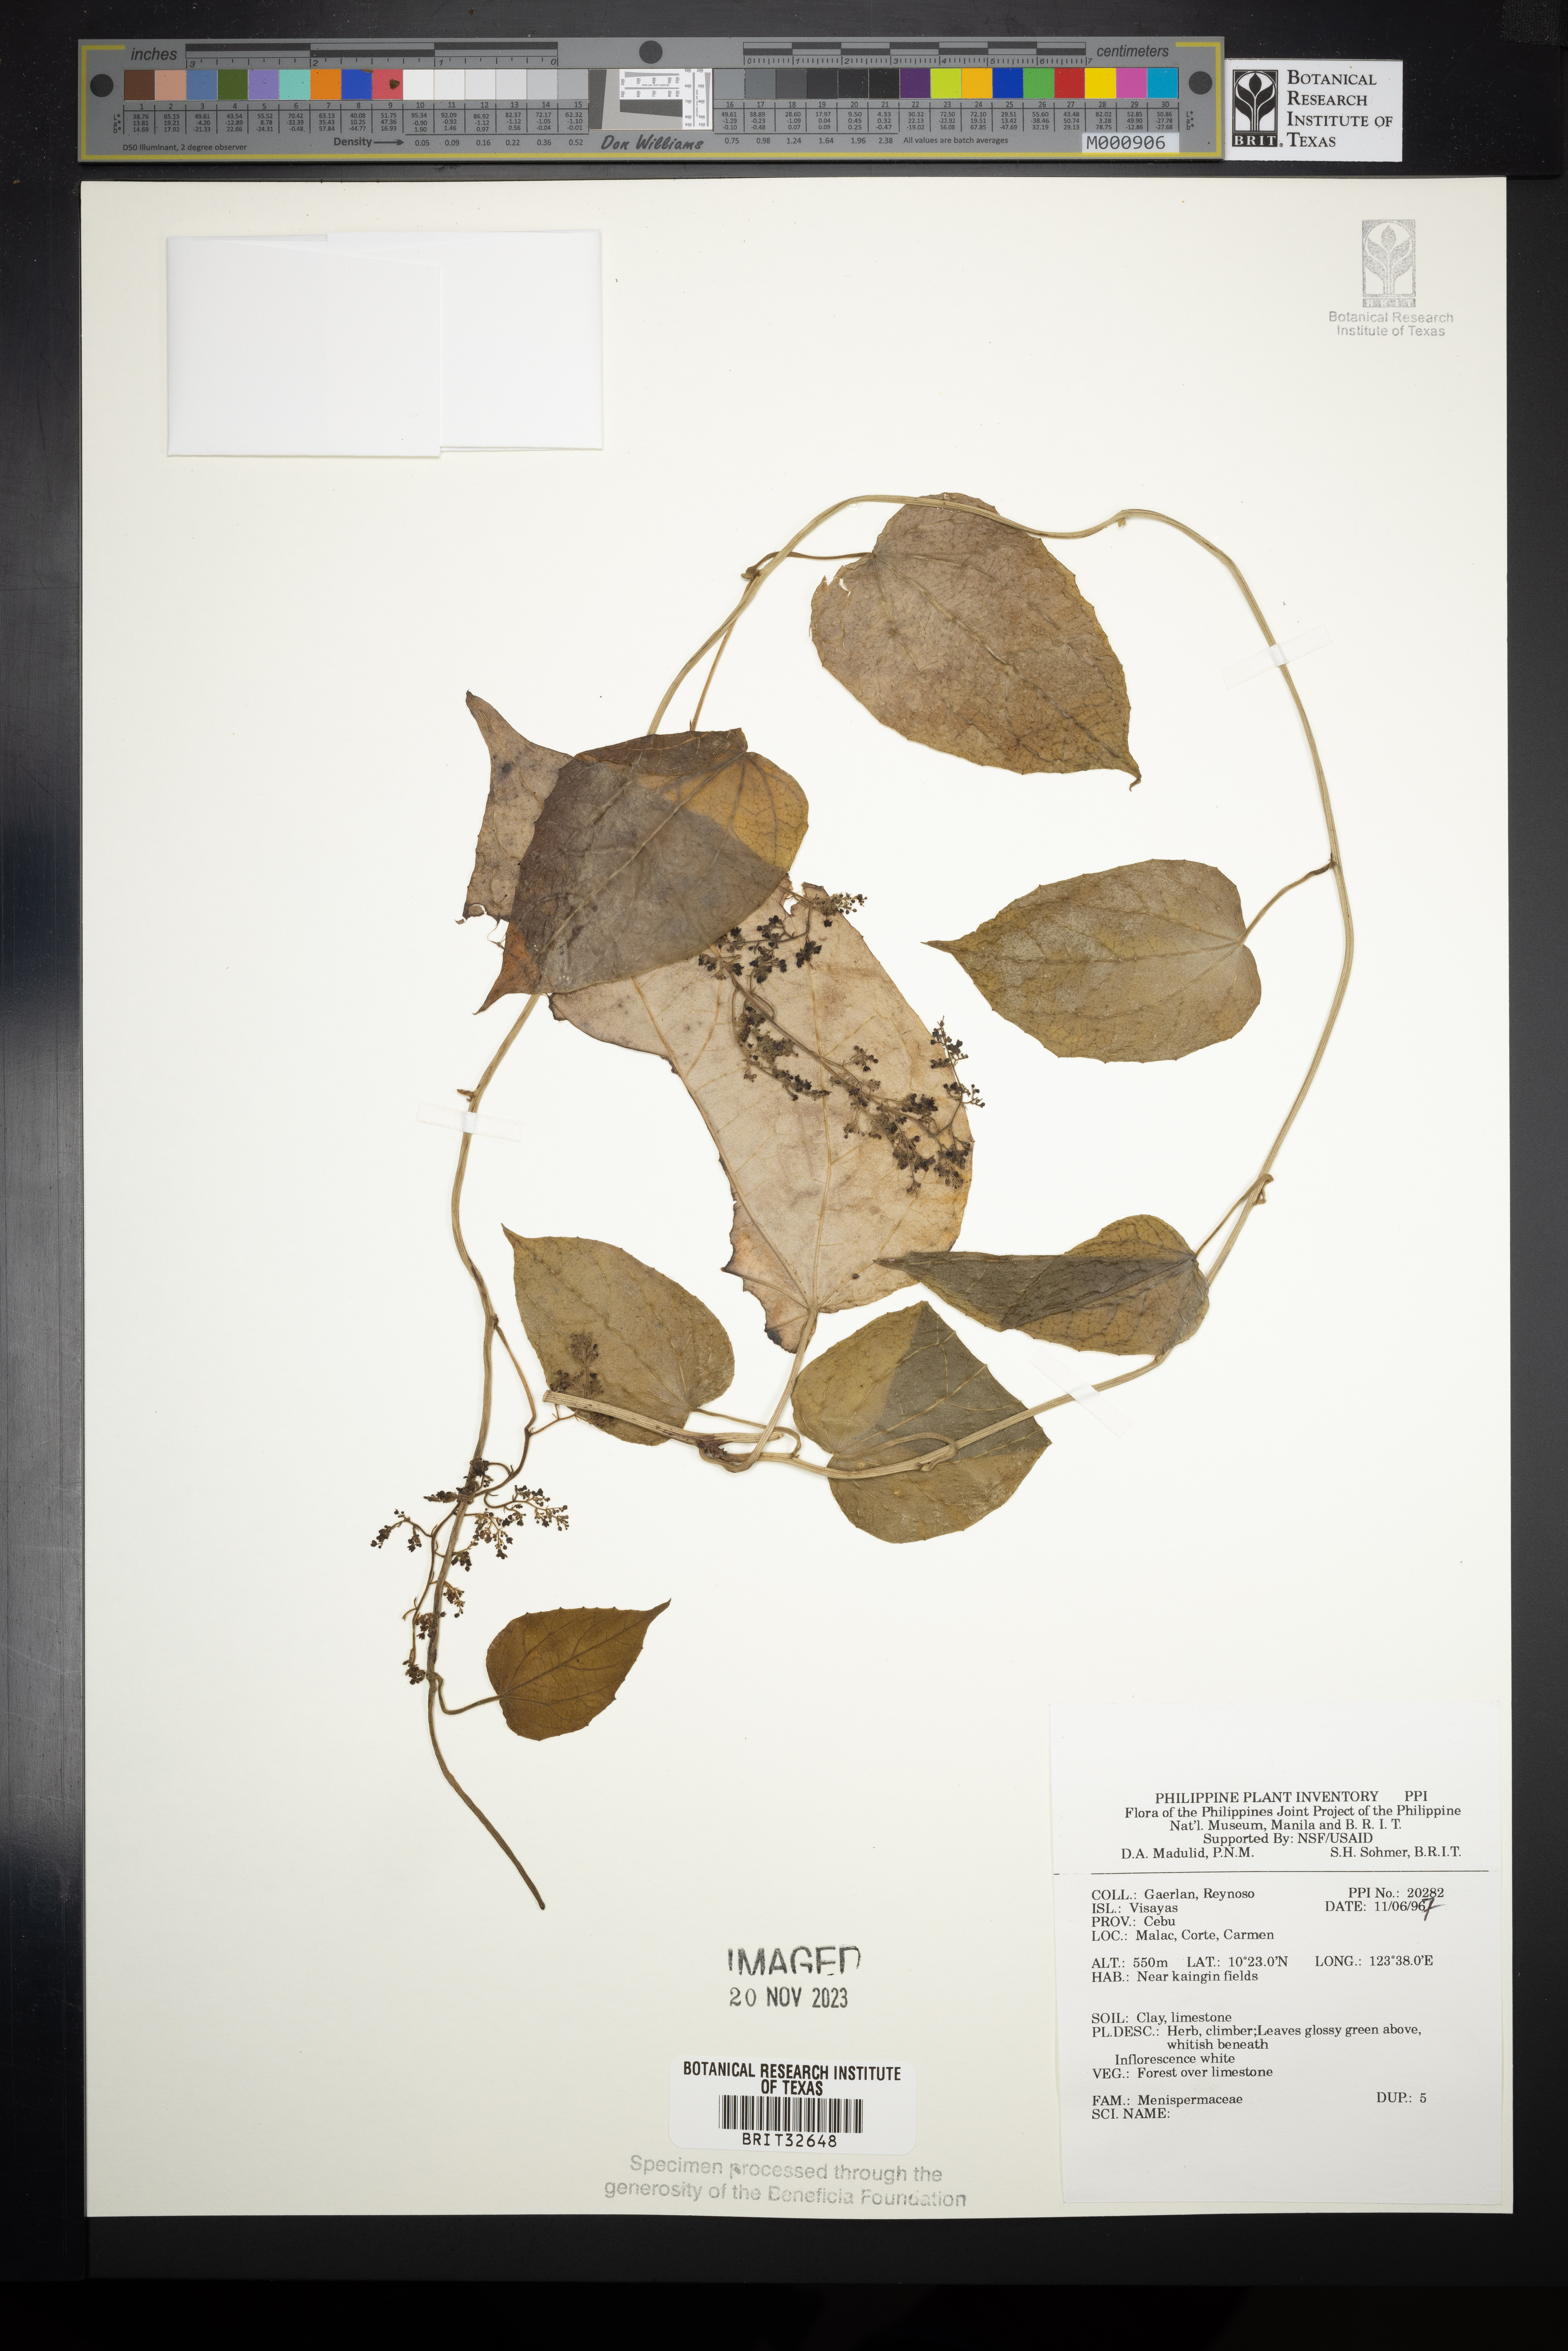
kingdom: Plantae
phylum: Tracheophyta
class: Magnoliopsida
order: Ranunculales
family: Menispermaceae
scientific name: Menispermaceae
